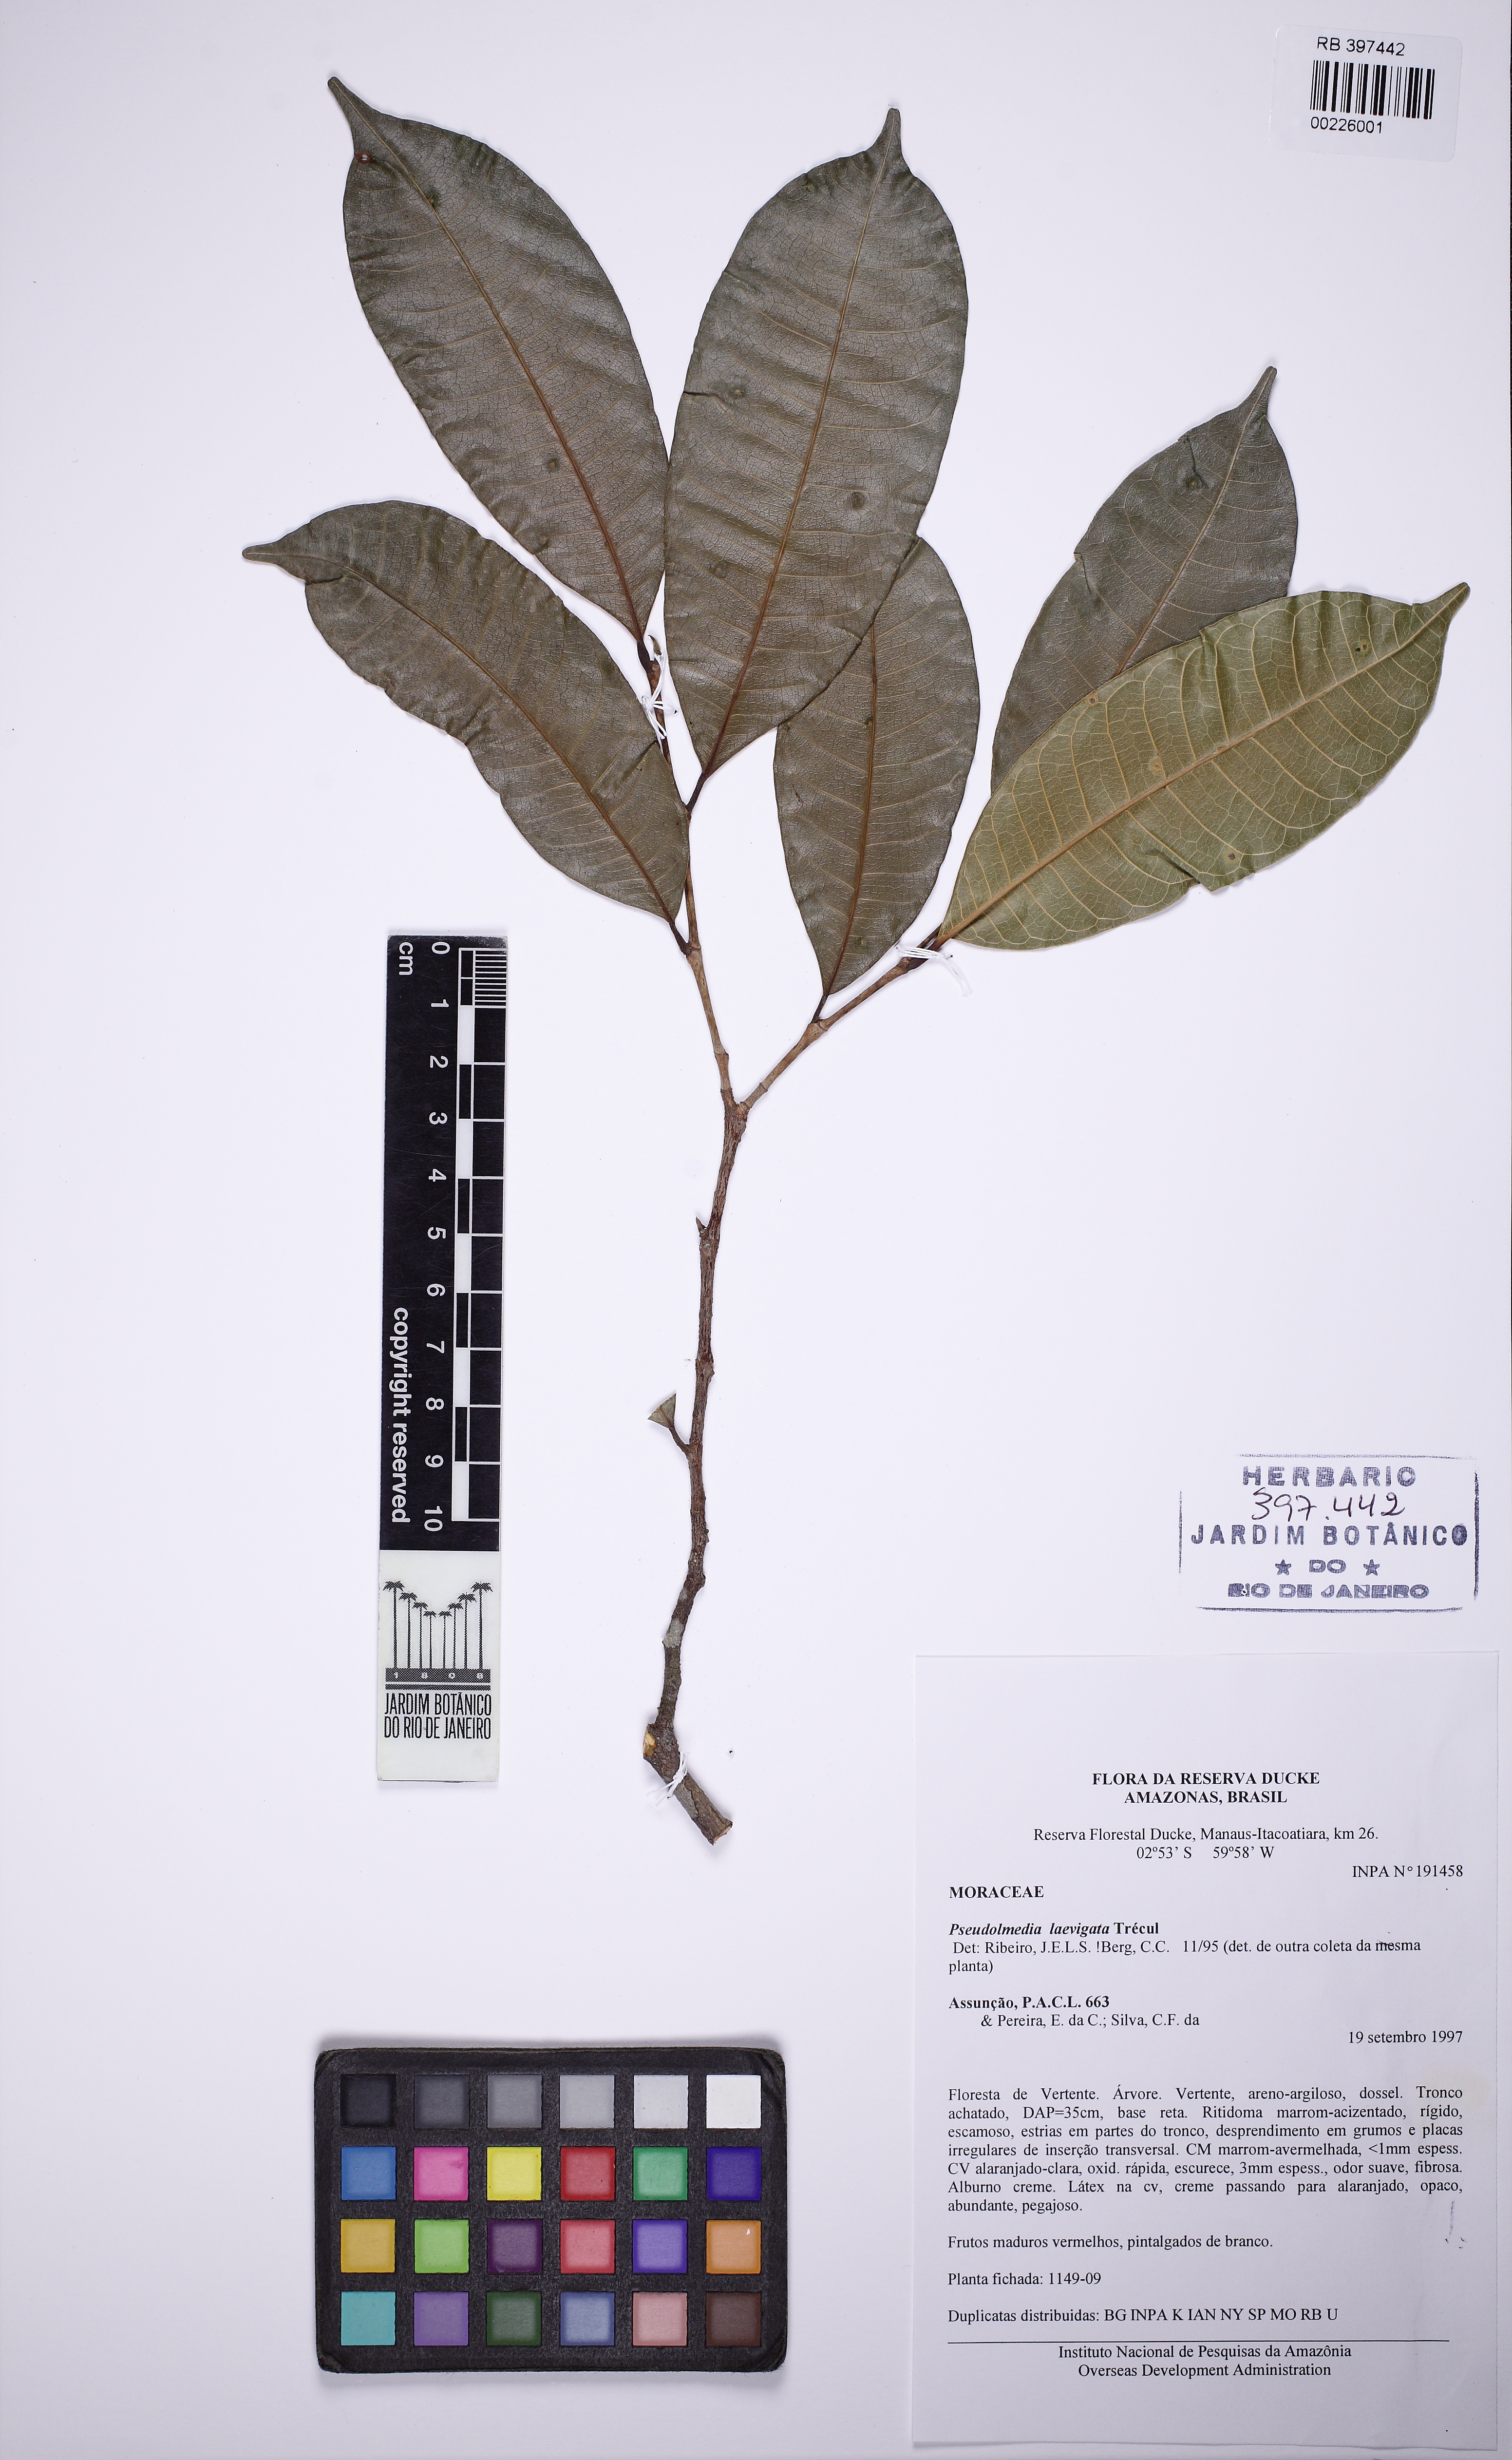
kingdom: Plantae
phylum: Tracheophyta
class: Magnoliopsida
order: Rosales
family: Moraceae
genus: Pseudolmedia
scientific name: Pseudolmedia laevigata
